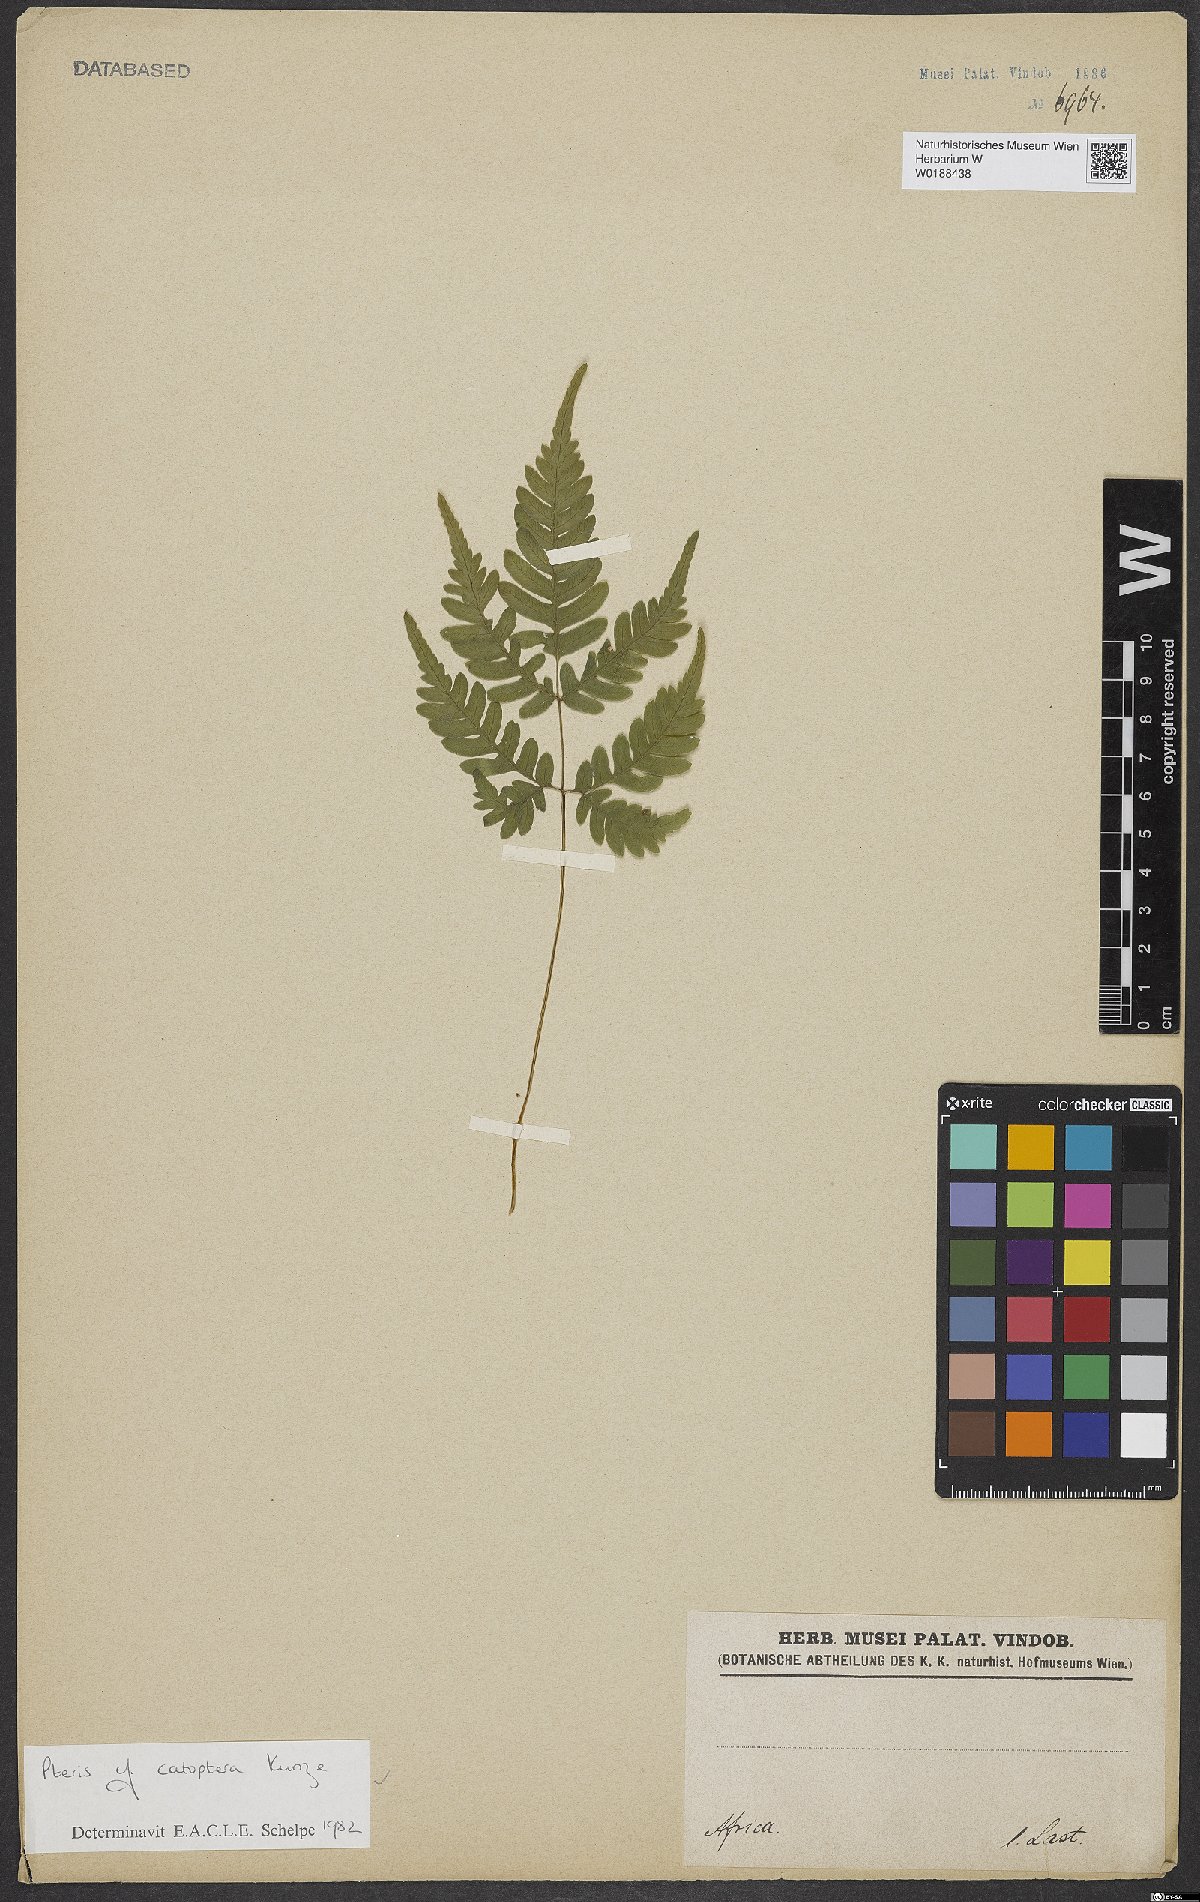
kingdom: Plantae
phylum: Tracheophyta
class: Polypodiopsida
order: Polypodiales
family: Pteridaceae
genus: Pteris
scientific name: Pteris catoptera
